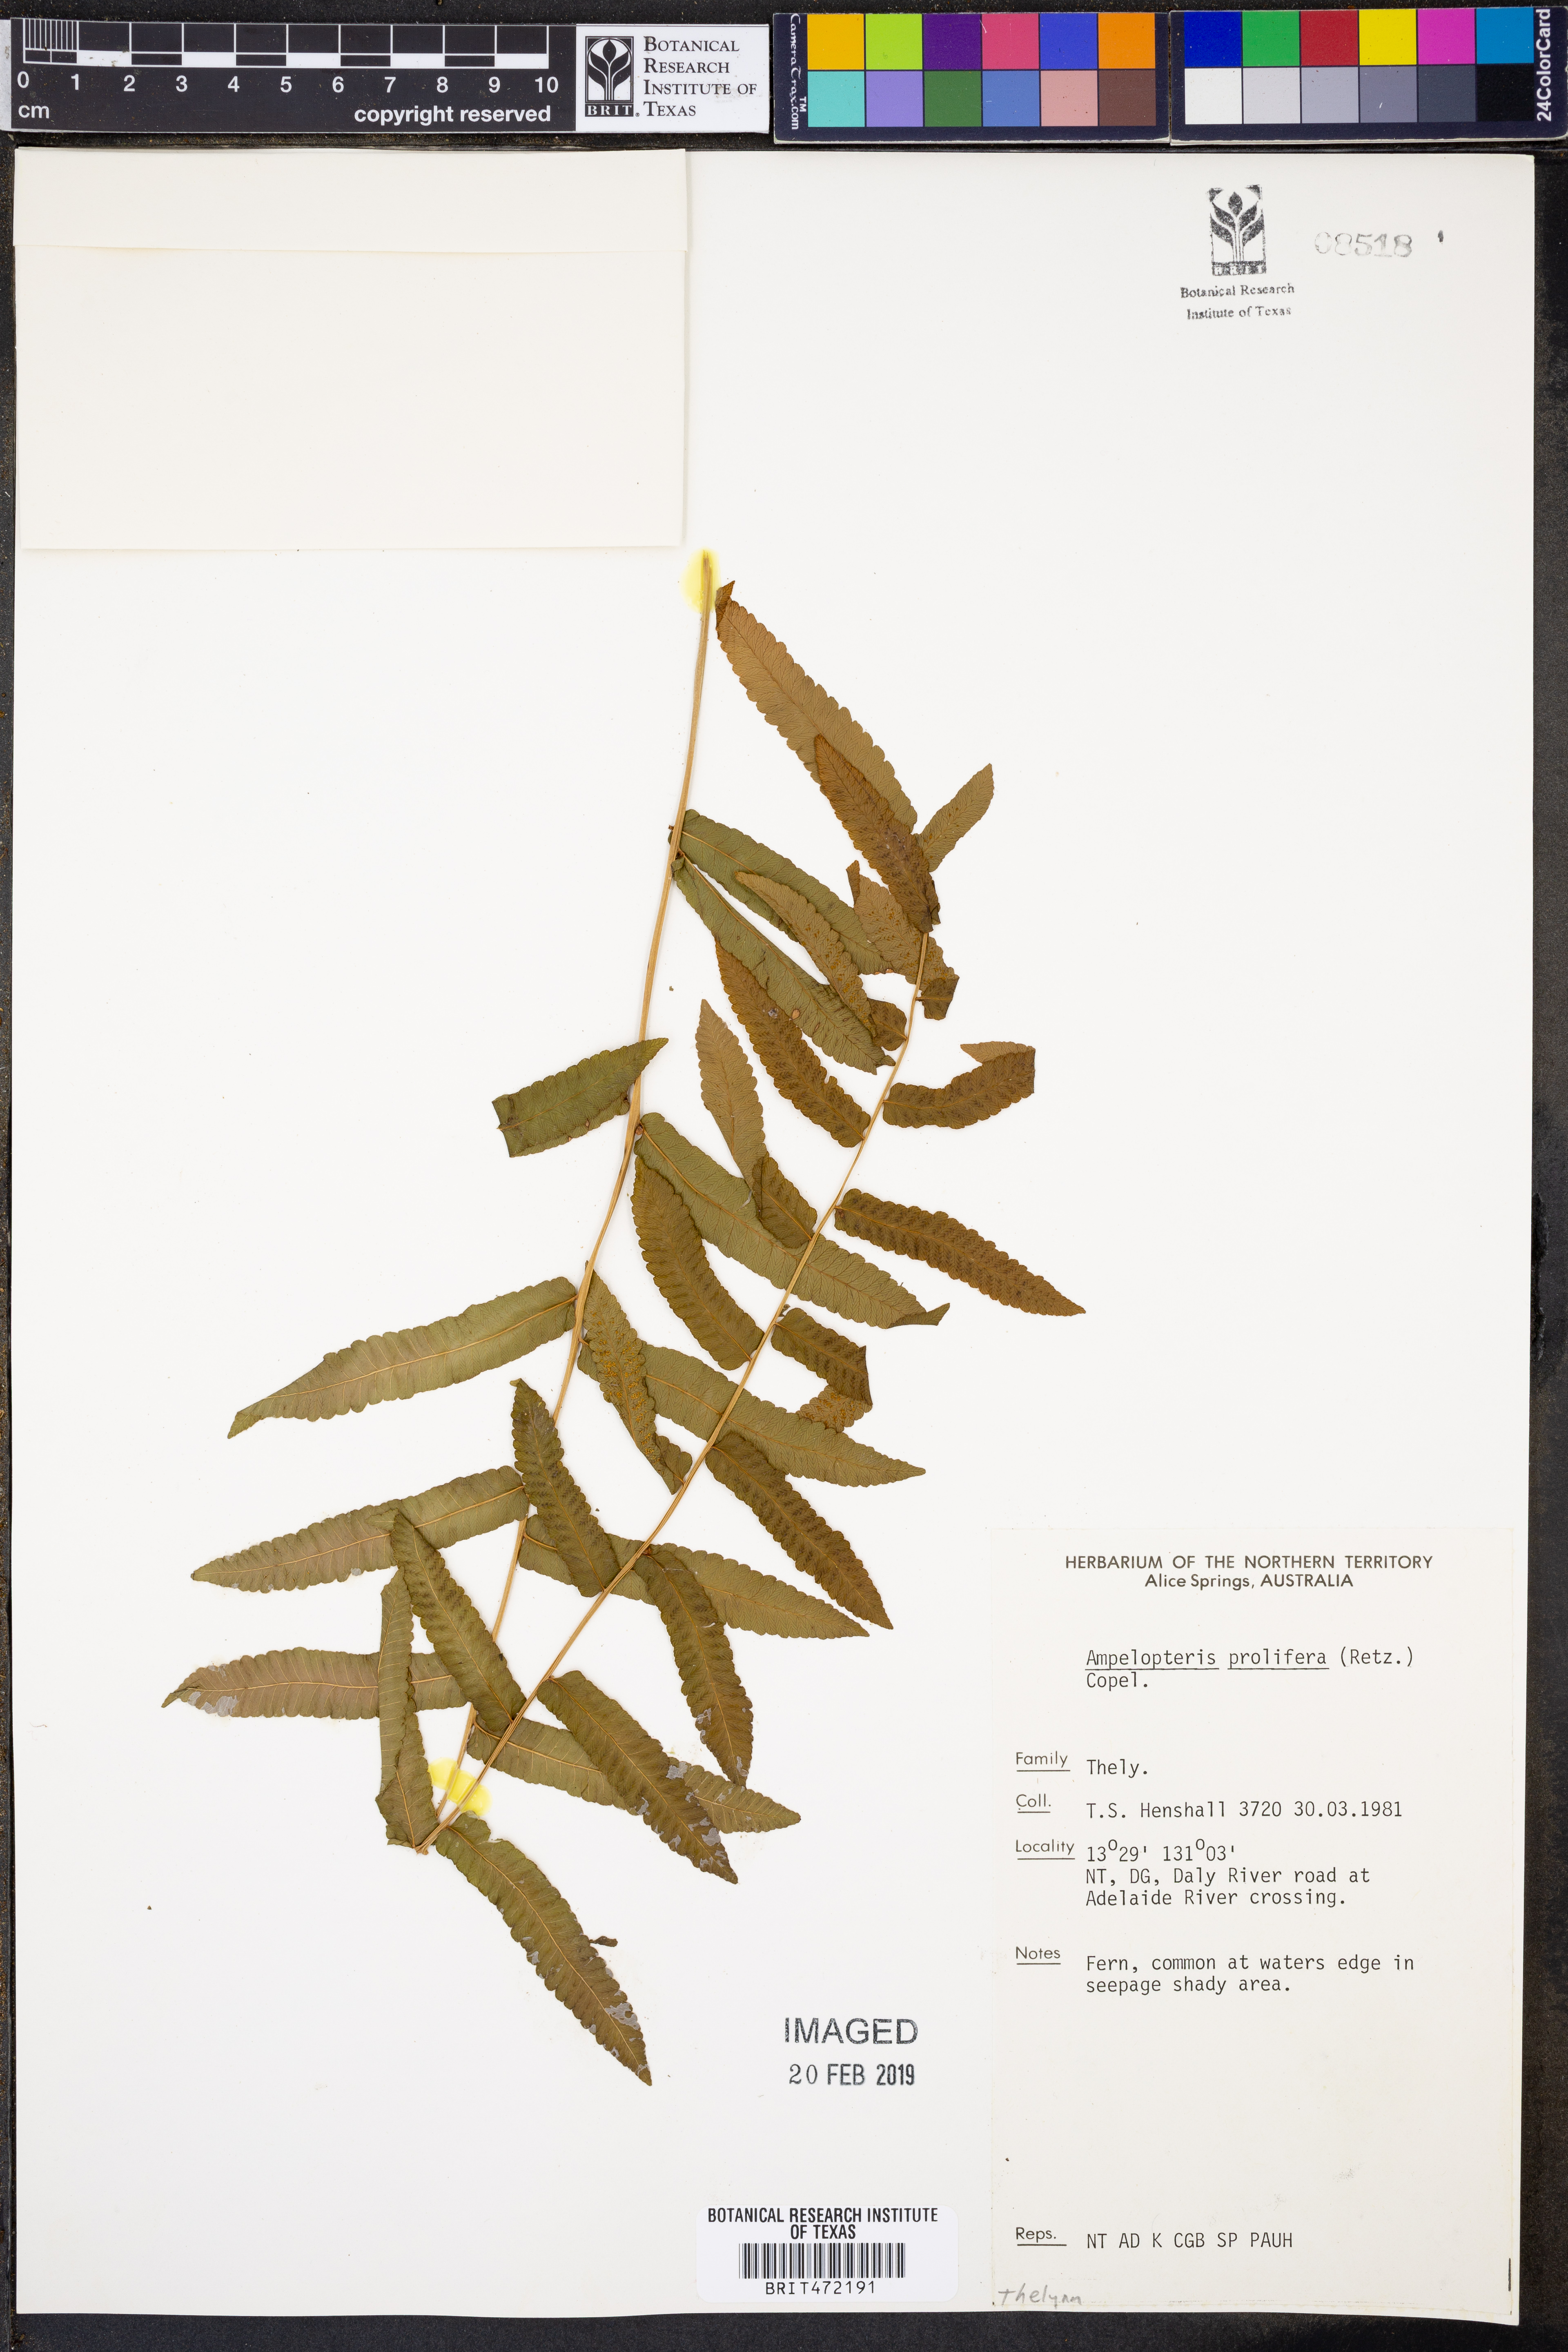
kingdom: Plantae
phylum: Tracheophyta
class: Polypodiopsida
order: Polypodiales
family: Thelypteridaceae
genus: Ampelopteris
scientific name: Ampelopteris prolifera
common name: Riverine scrambler
